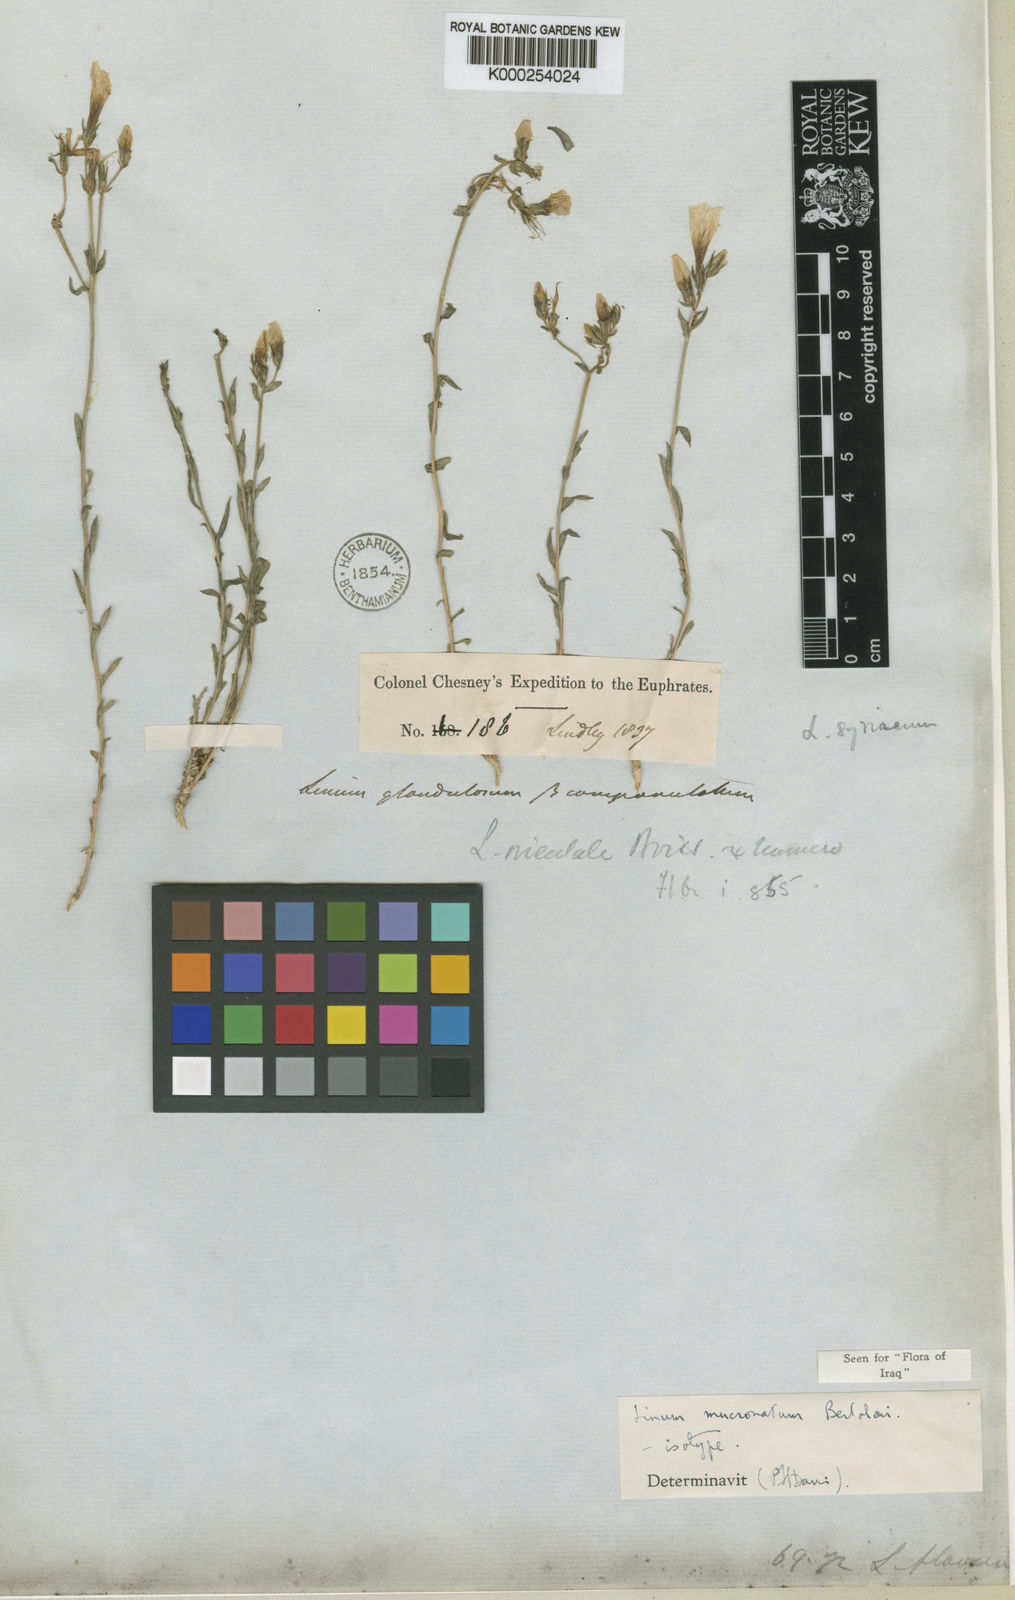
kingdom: Plantae
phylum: Tracheophyta
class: Magnoliopsida
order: Malpighiales
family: Linaceae
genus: Linum
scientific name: Linum mucronatum
